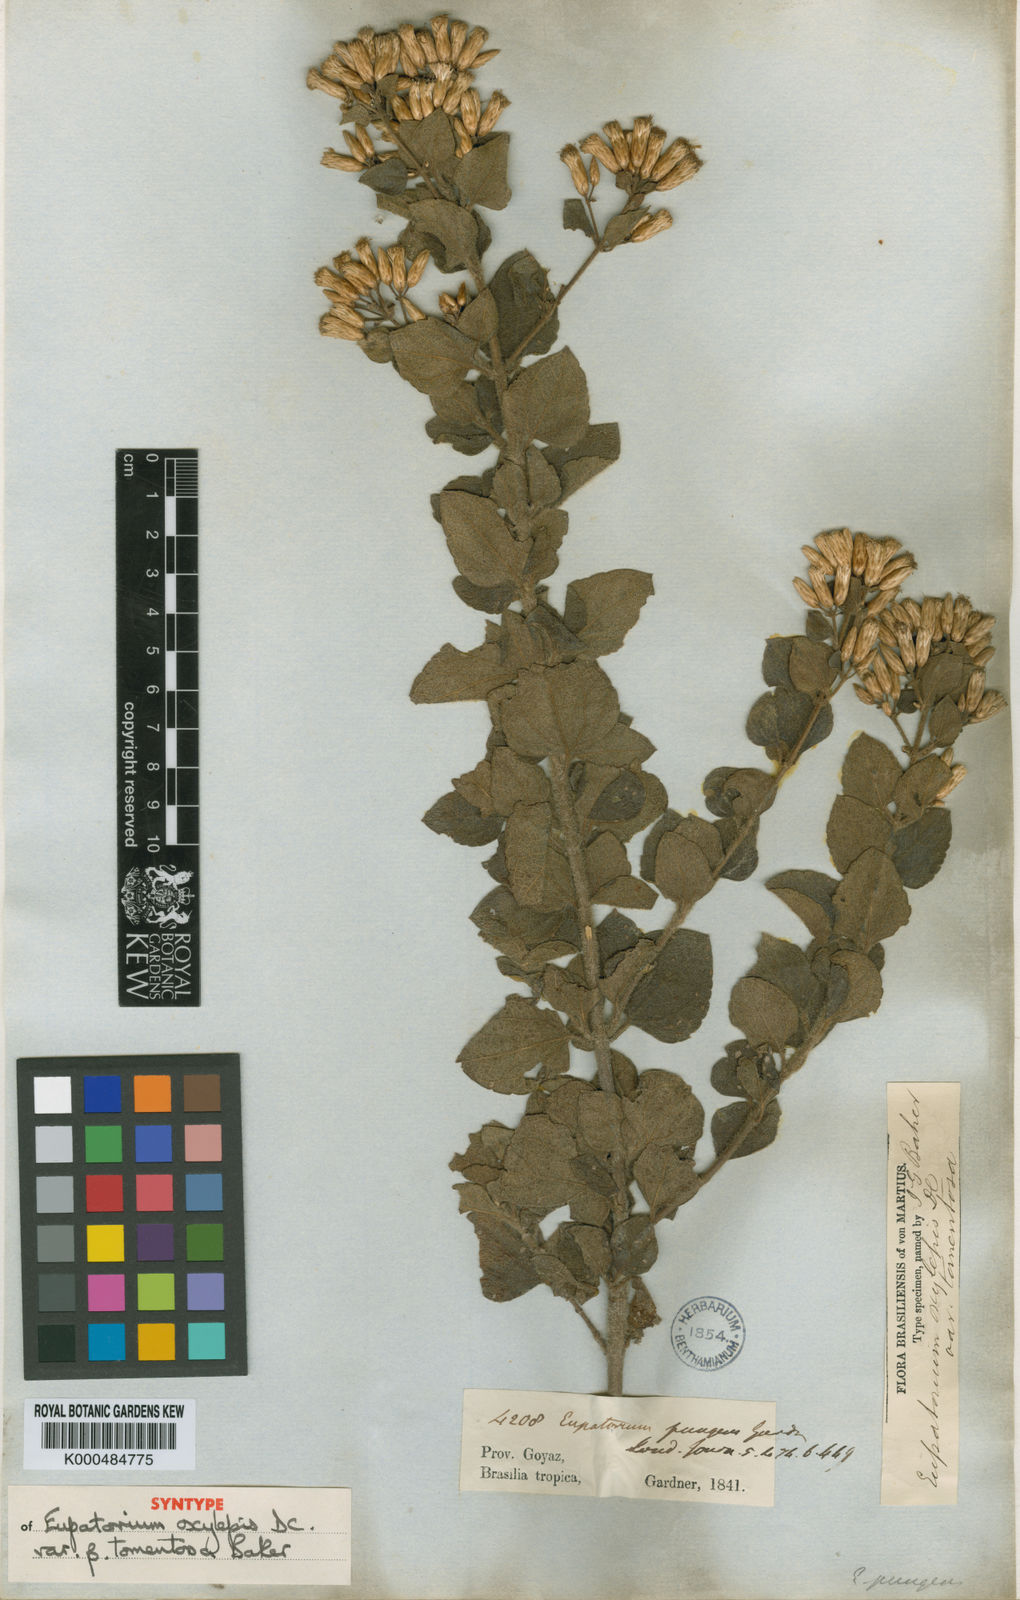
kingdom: Plantae
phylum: Tracheophyta
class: Magnoliopsida
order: Asterales
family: Asteraceae
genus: Chromolaena
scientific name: Chromolaena ferruginea
